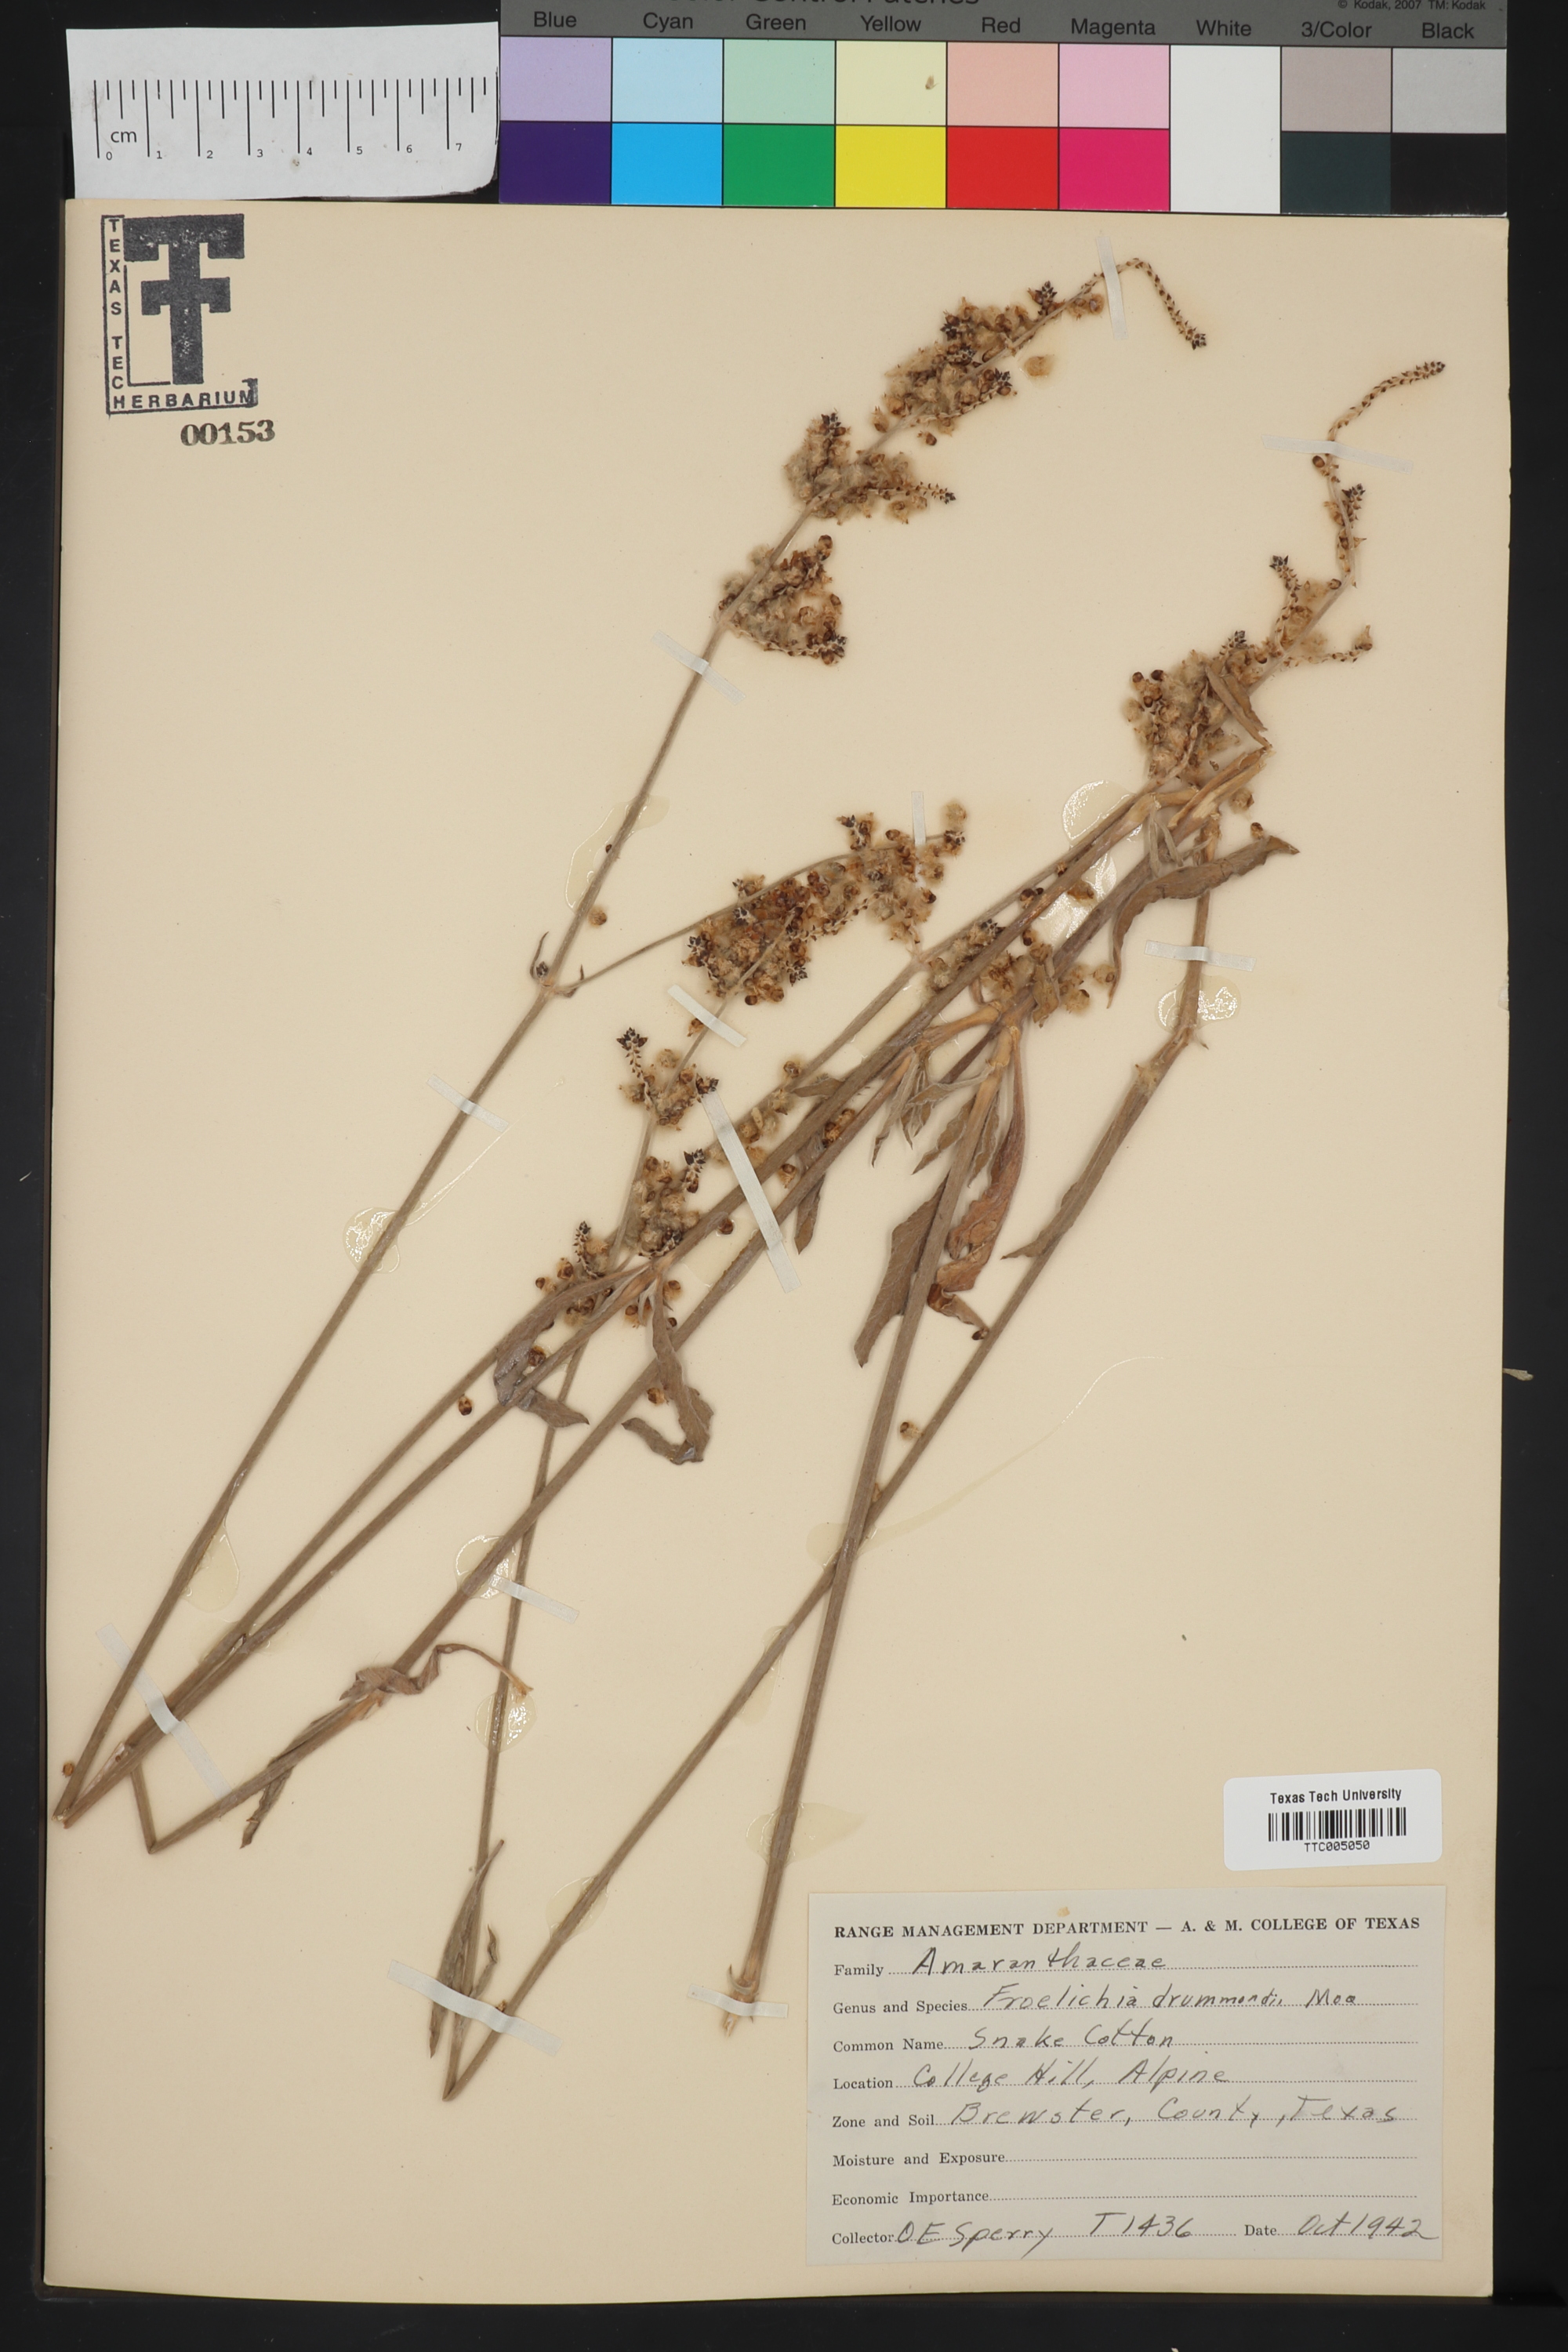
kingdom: Plantae
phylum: Tracheophyta
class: Magnoliopsida
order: Caryophyllales
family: Amaranthaceae
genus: Froelichia
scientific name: Froelichia drummondii
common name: Drummond's snake-cotton
